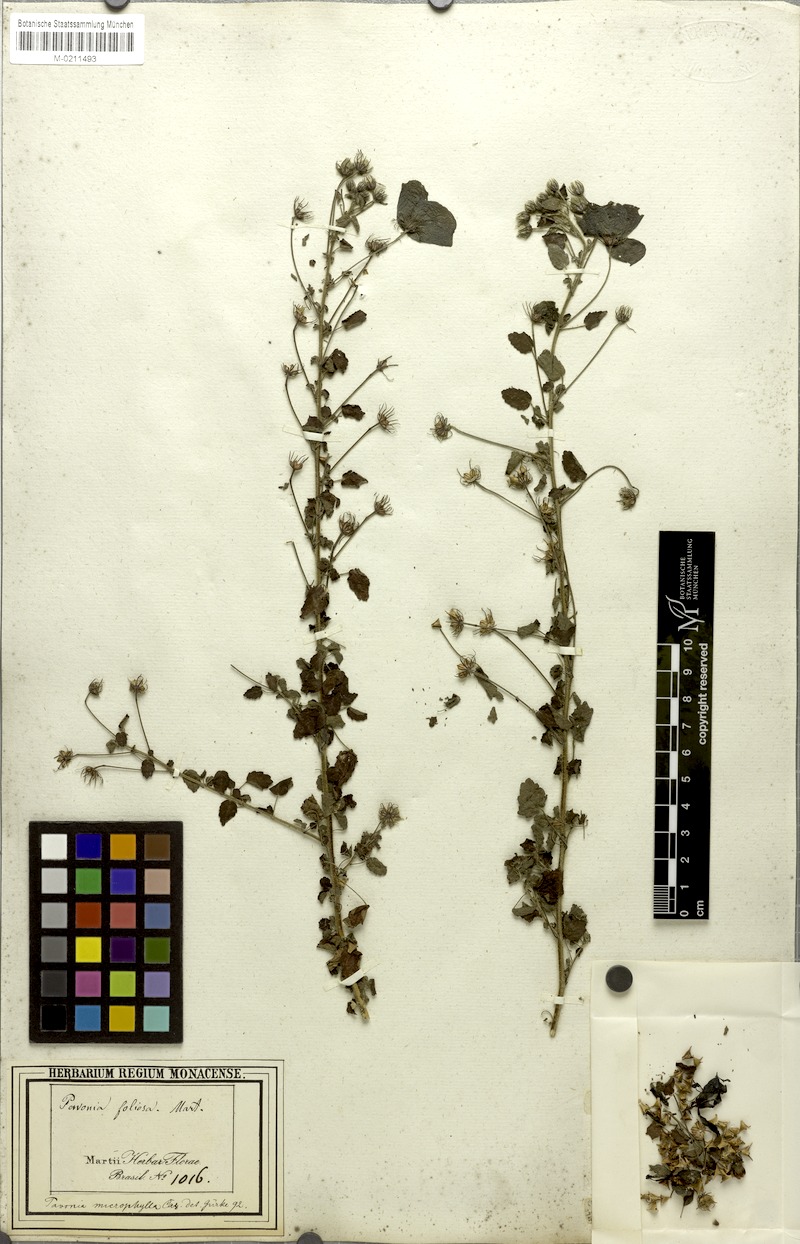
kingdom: Plantae
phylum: Tracheophyta
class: Magnoliopsida
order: Malvales
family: Malvaceae
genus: Pavonia
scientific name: Pavonia martii
